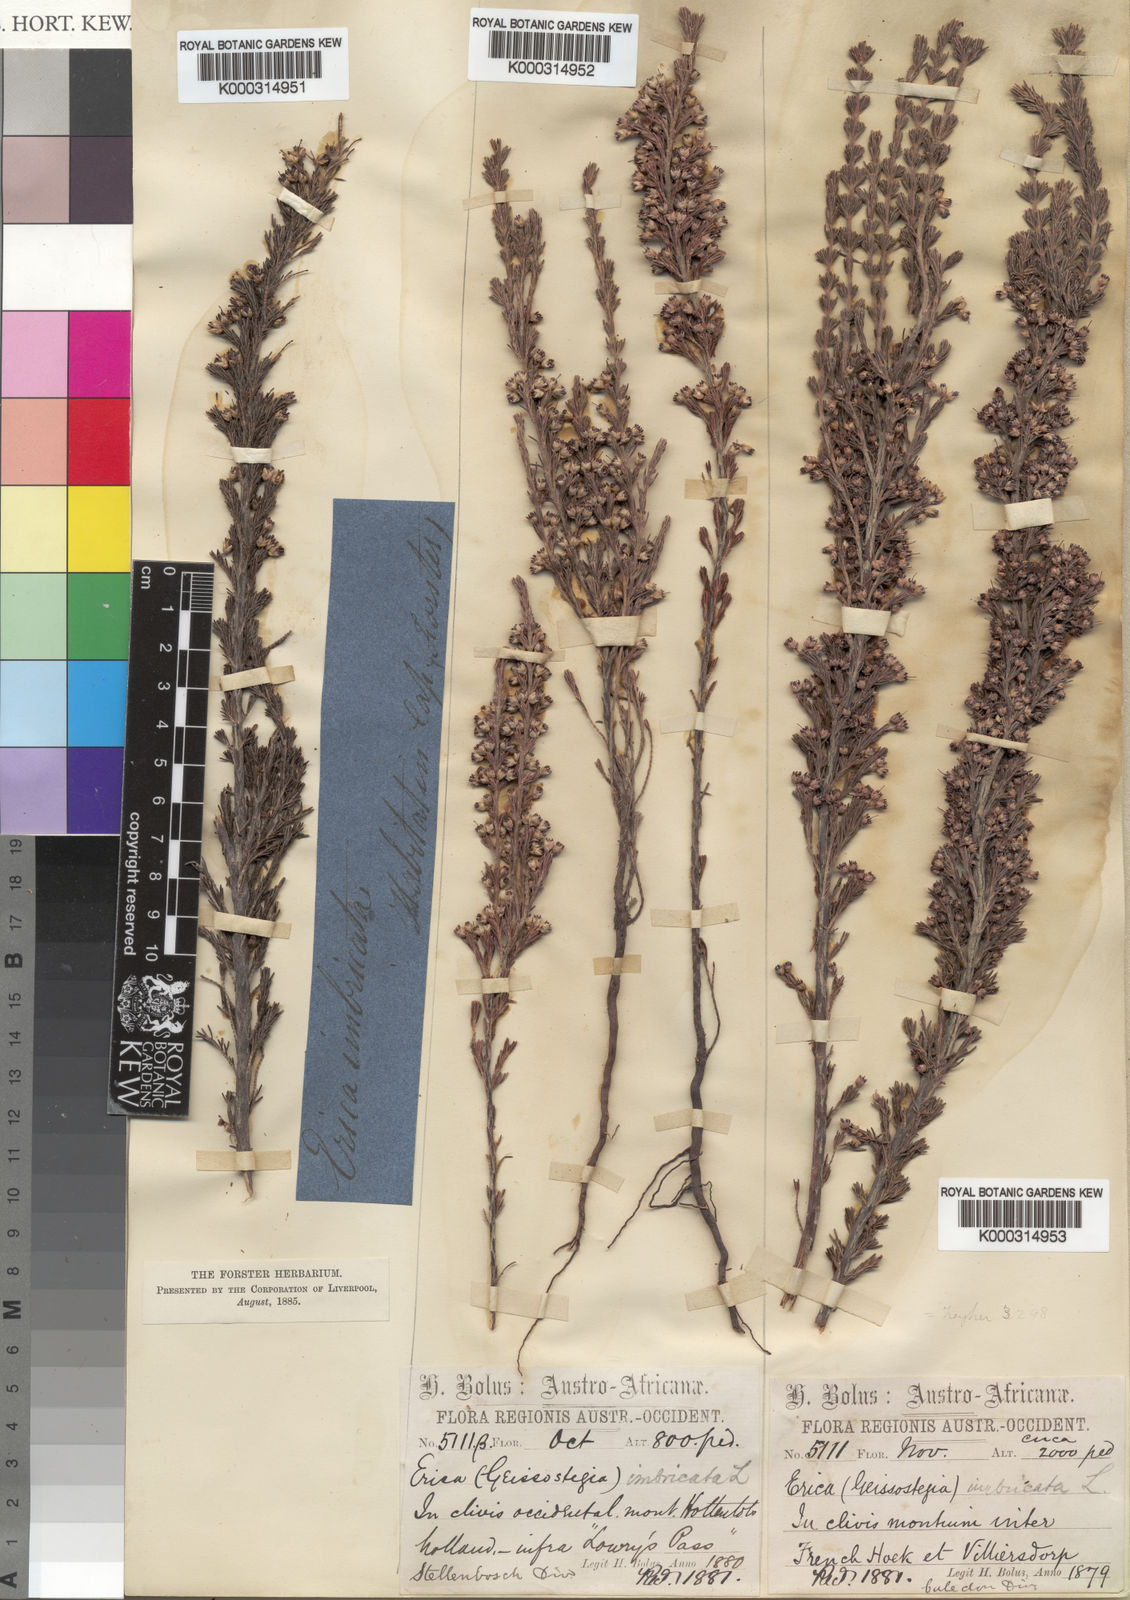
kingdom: Plantae
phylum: Tracheophyta
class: Magnoliopsida
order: Ericales
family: Ericaceae
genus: Erica
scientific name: Erica imbricata
